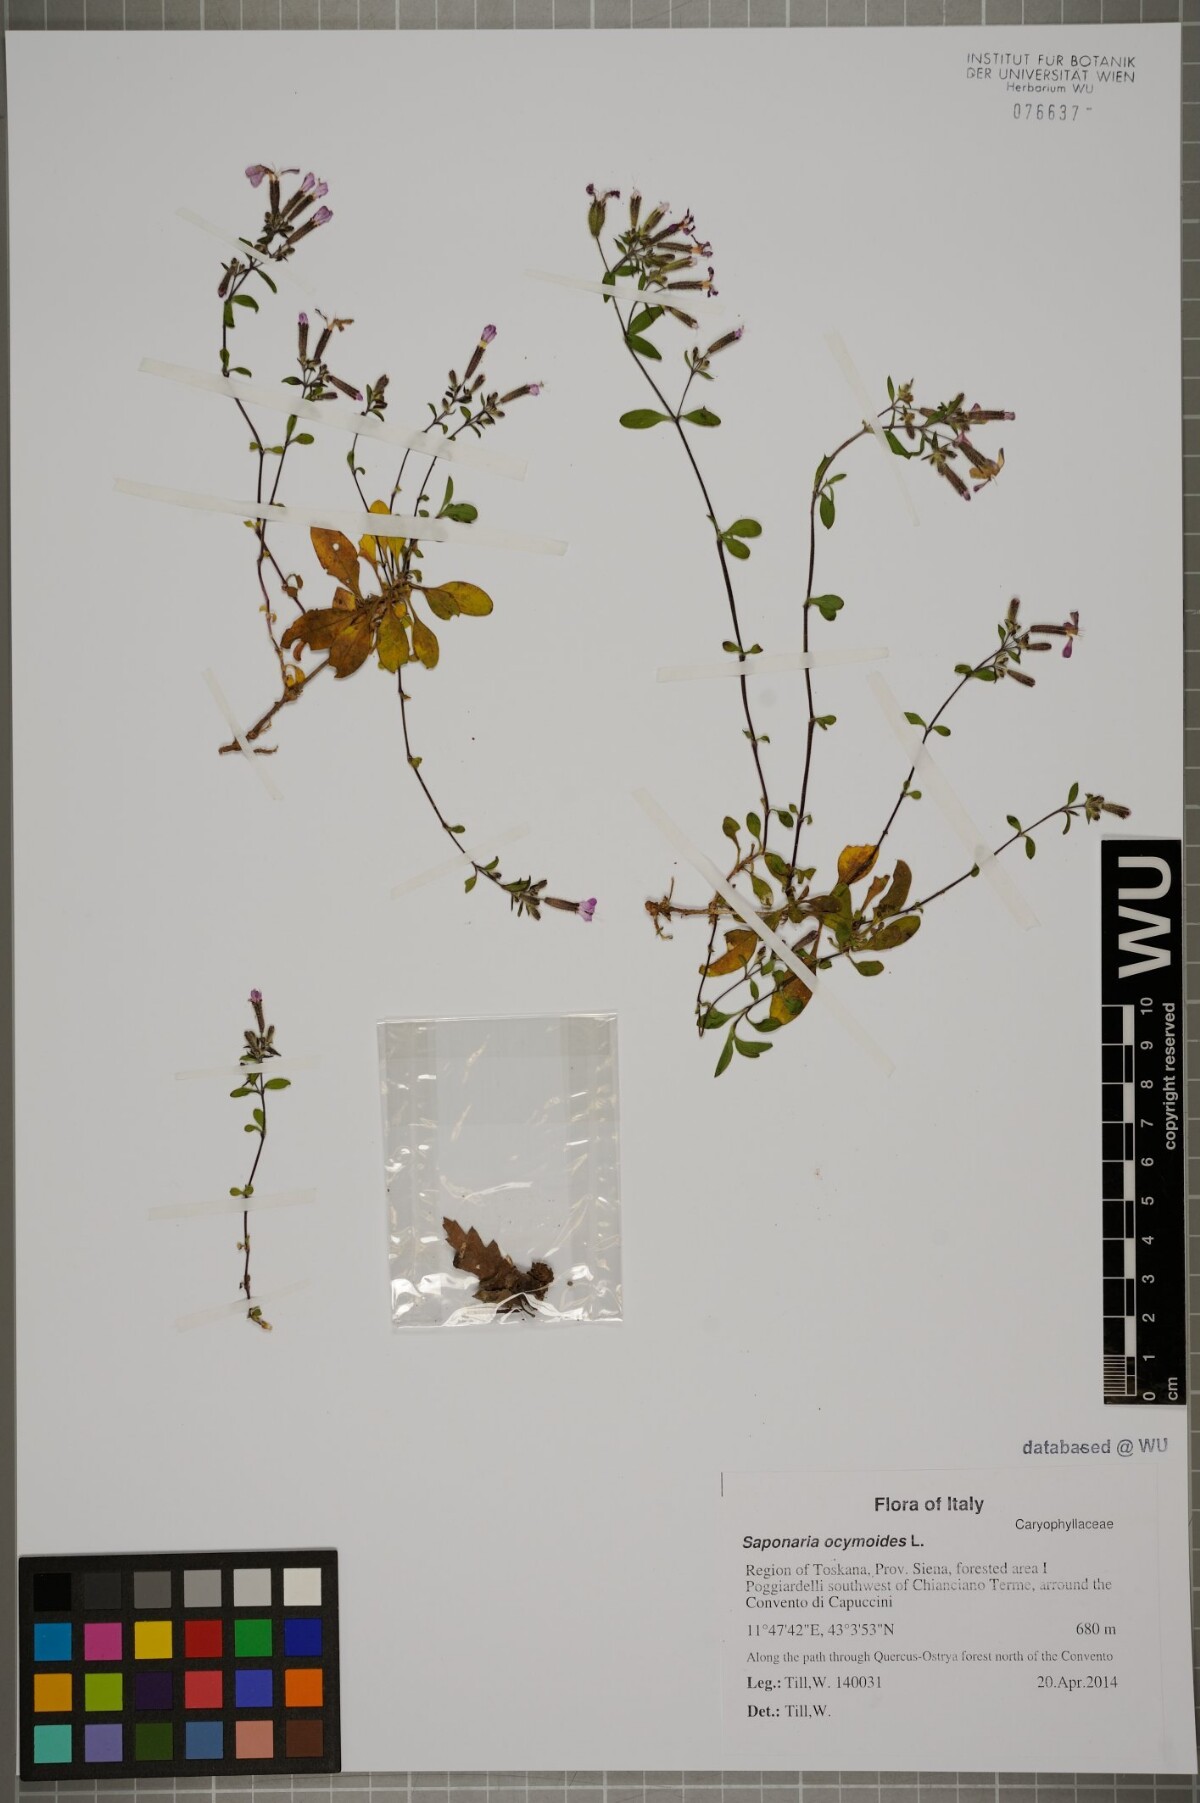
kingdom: Plantae
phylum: Tracheophyta
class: Magnoliopsida
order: Caryophyllales
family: Caryophyllaceae
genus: Saponaria
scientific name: Saponaria ocymoides
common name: Rock soapwort
